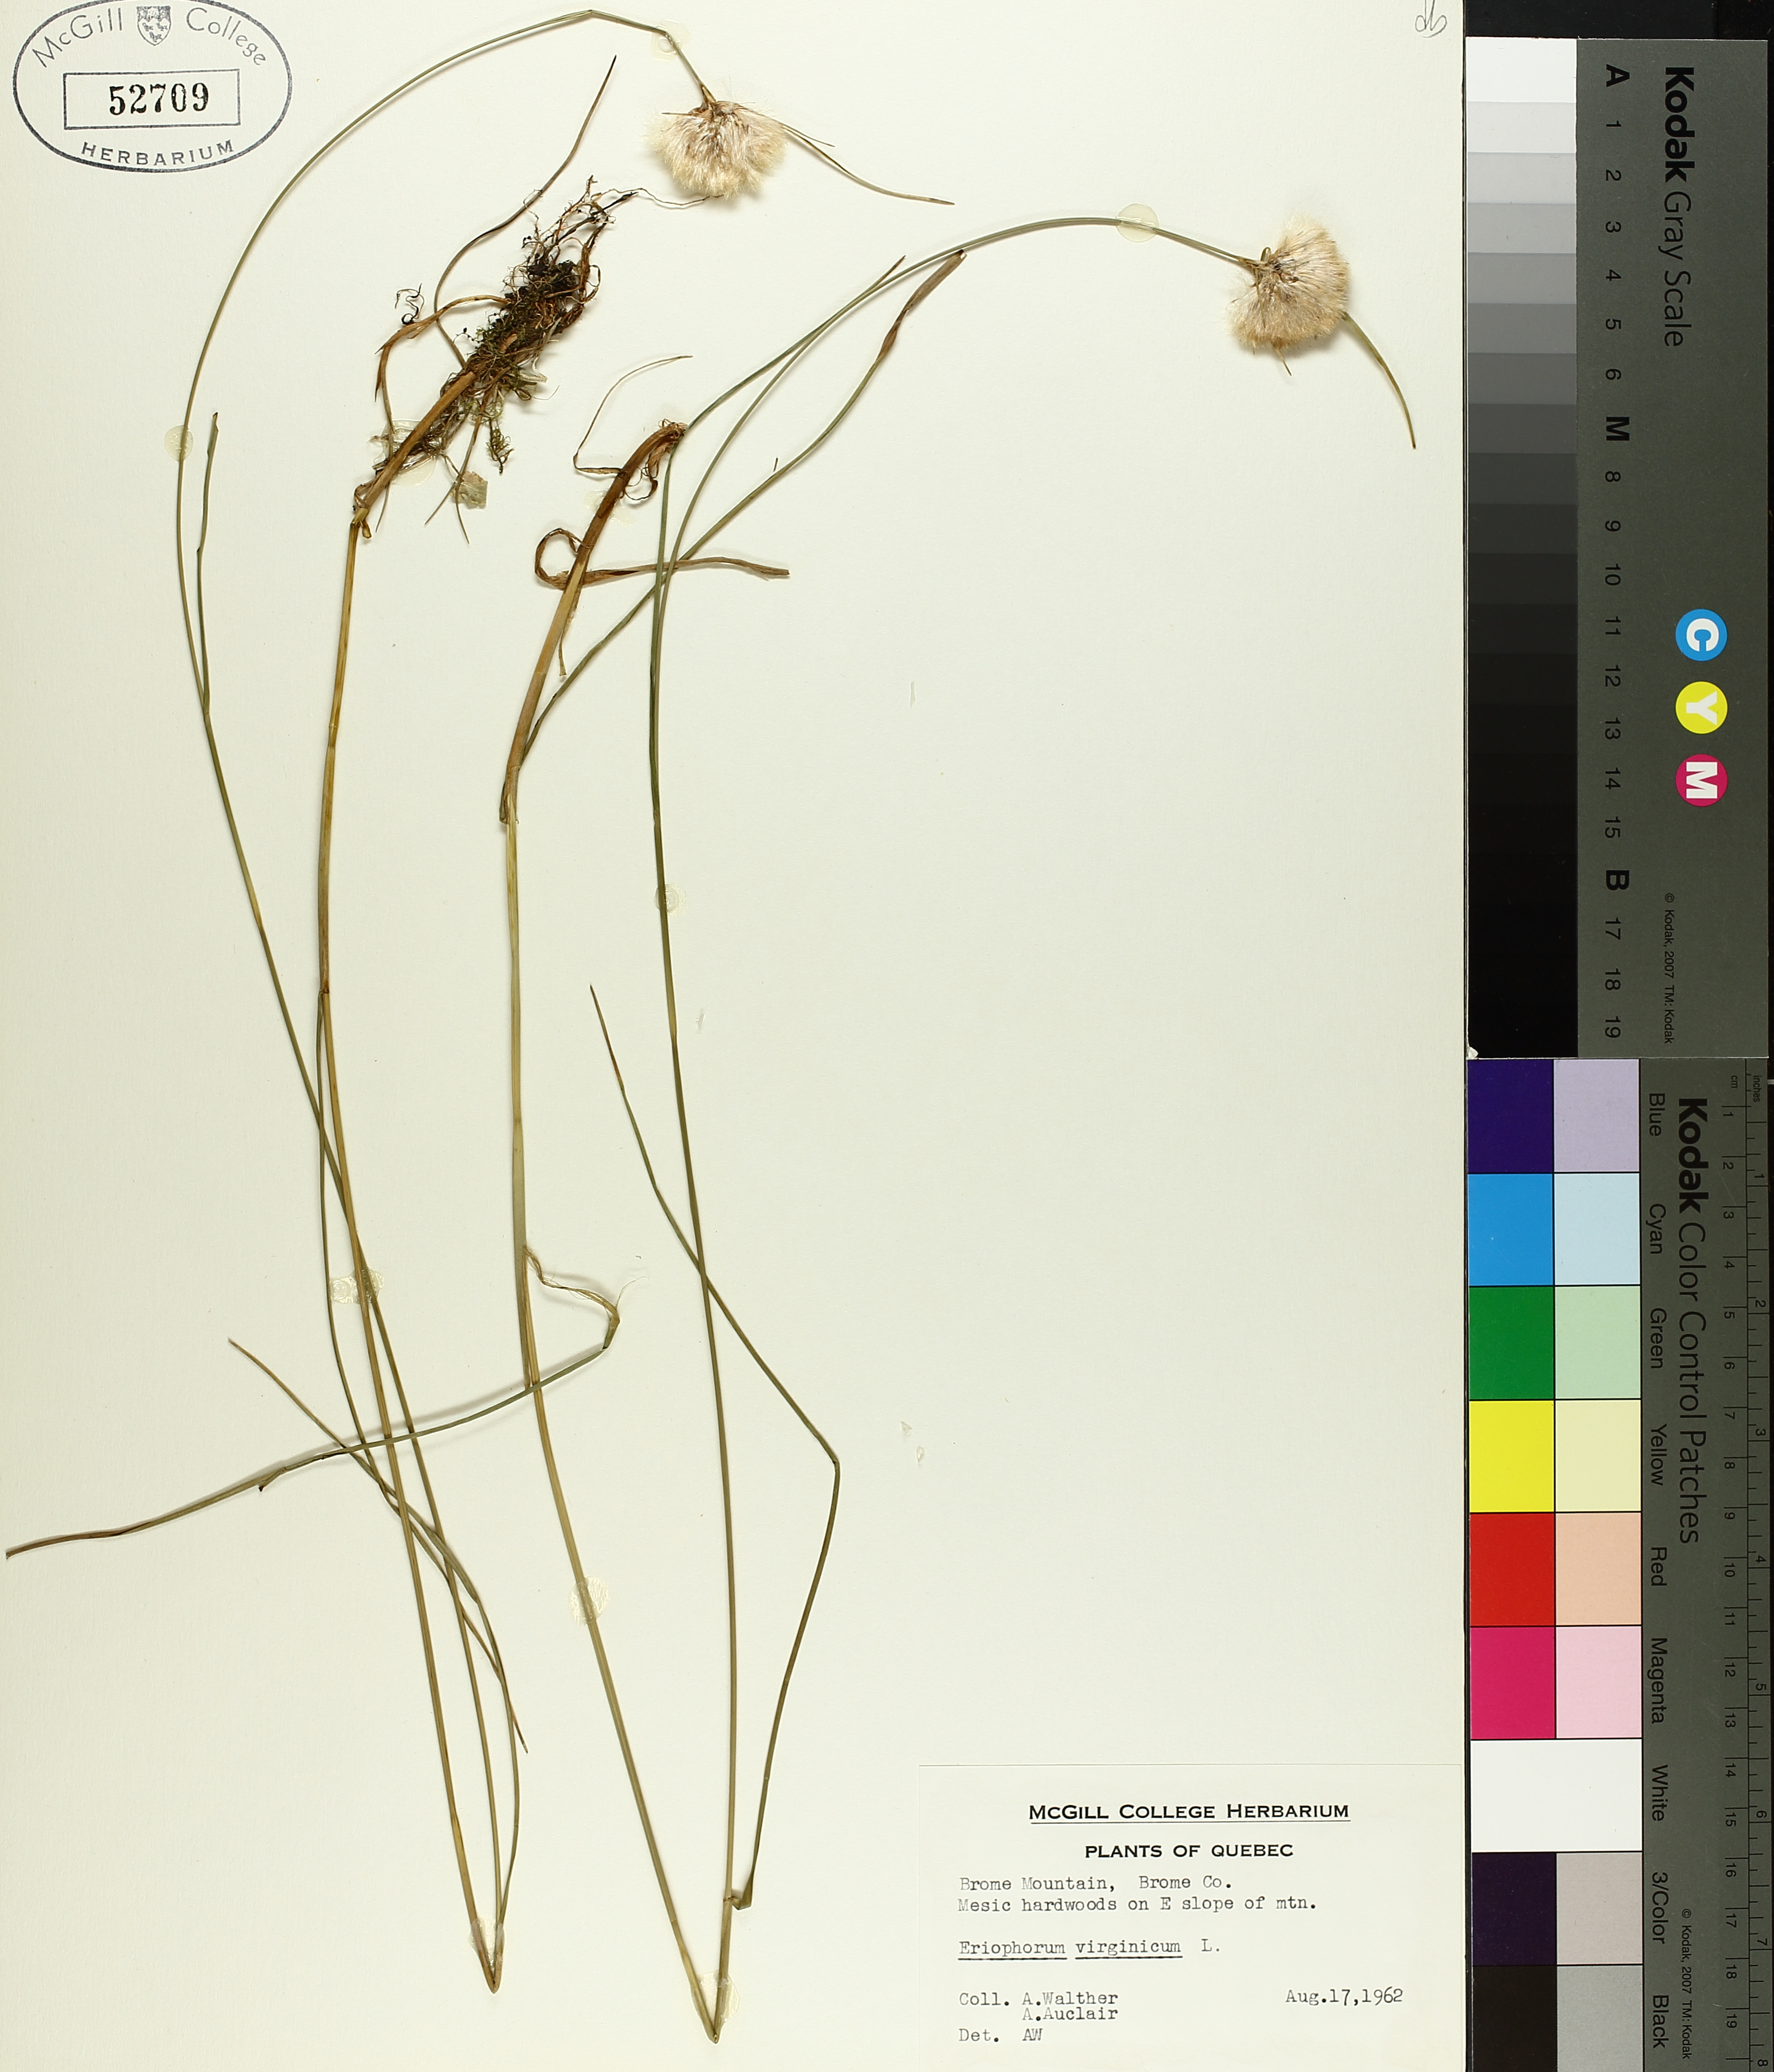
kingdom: Plantae
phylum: Tracheophyta
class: Liliopsida
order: Poales
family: Cyperaceae
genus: Eriophorum
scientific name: Eriophorum virginicum
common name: Tawny cottongrass
